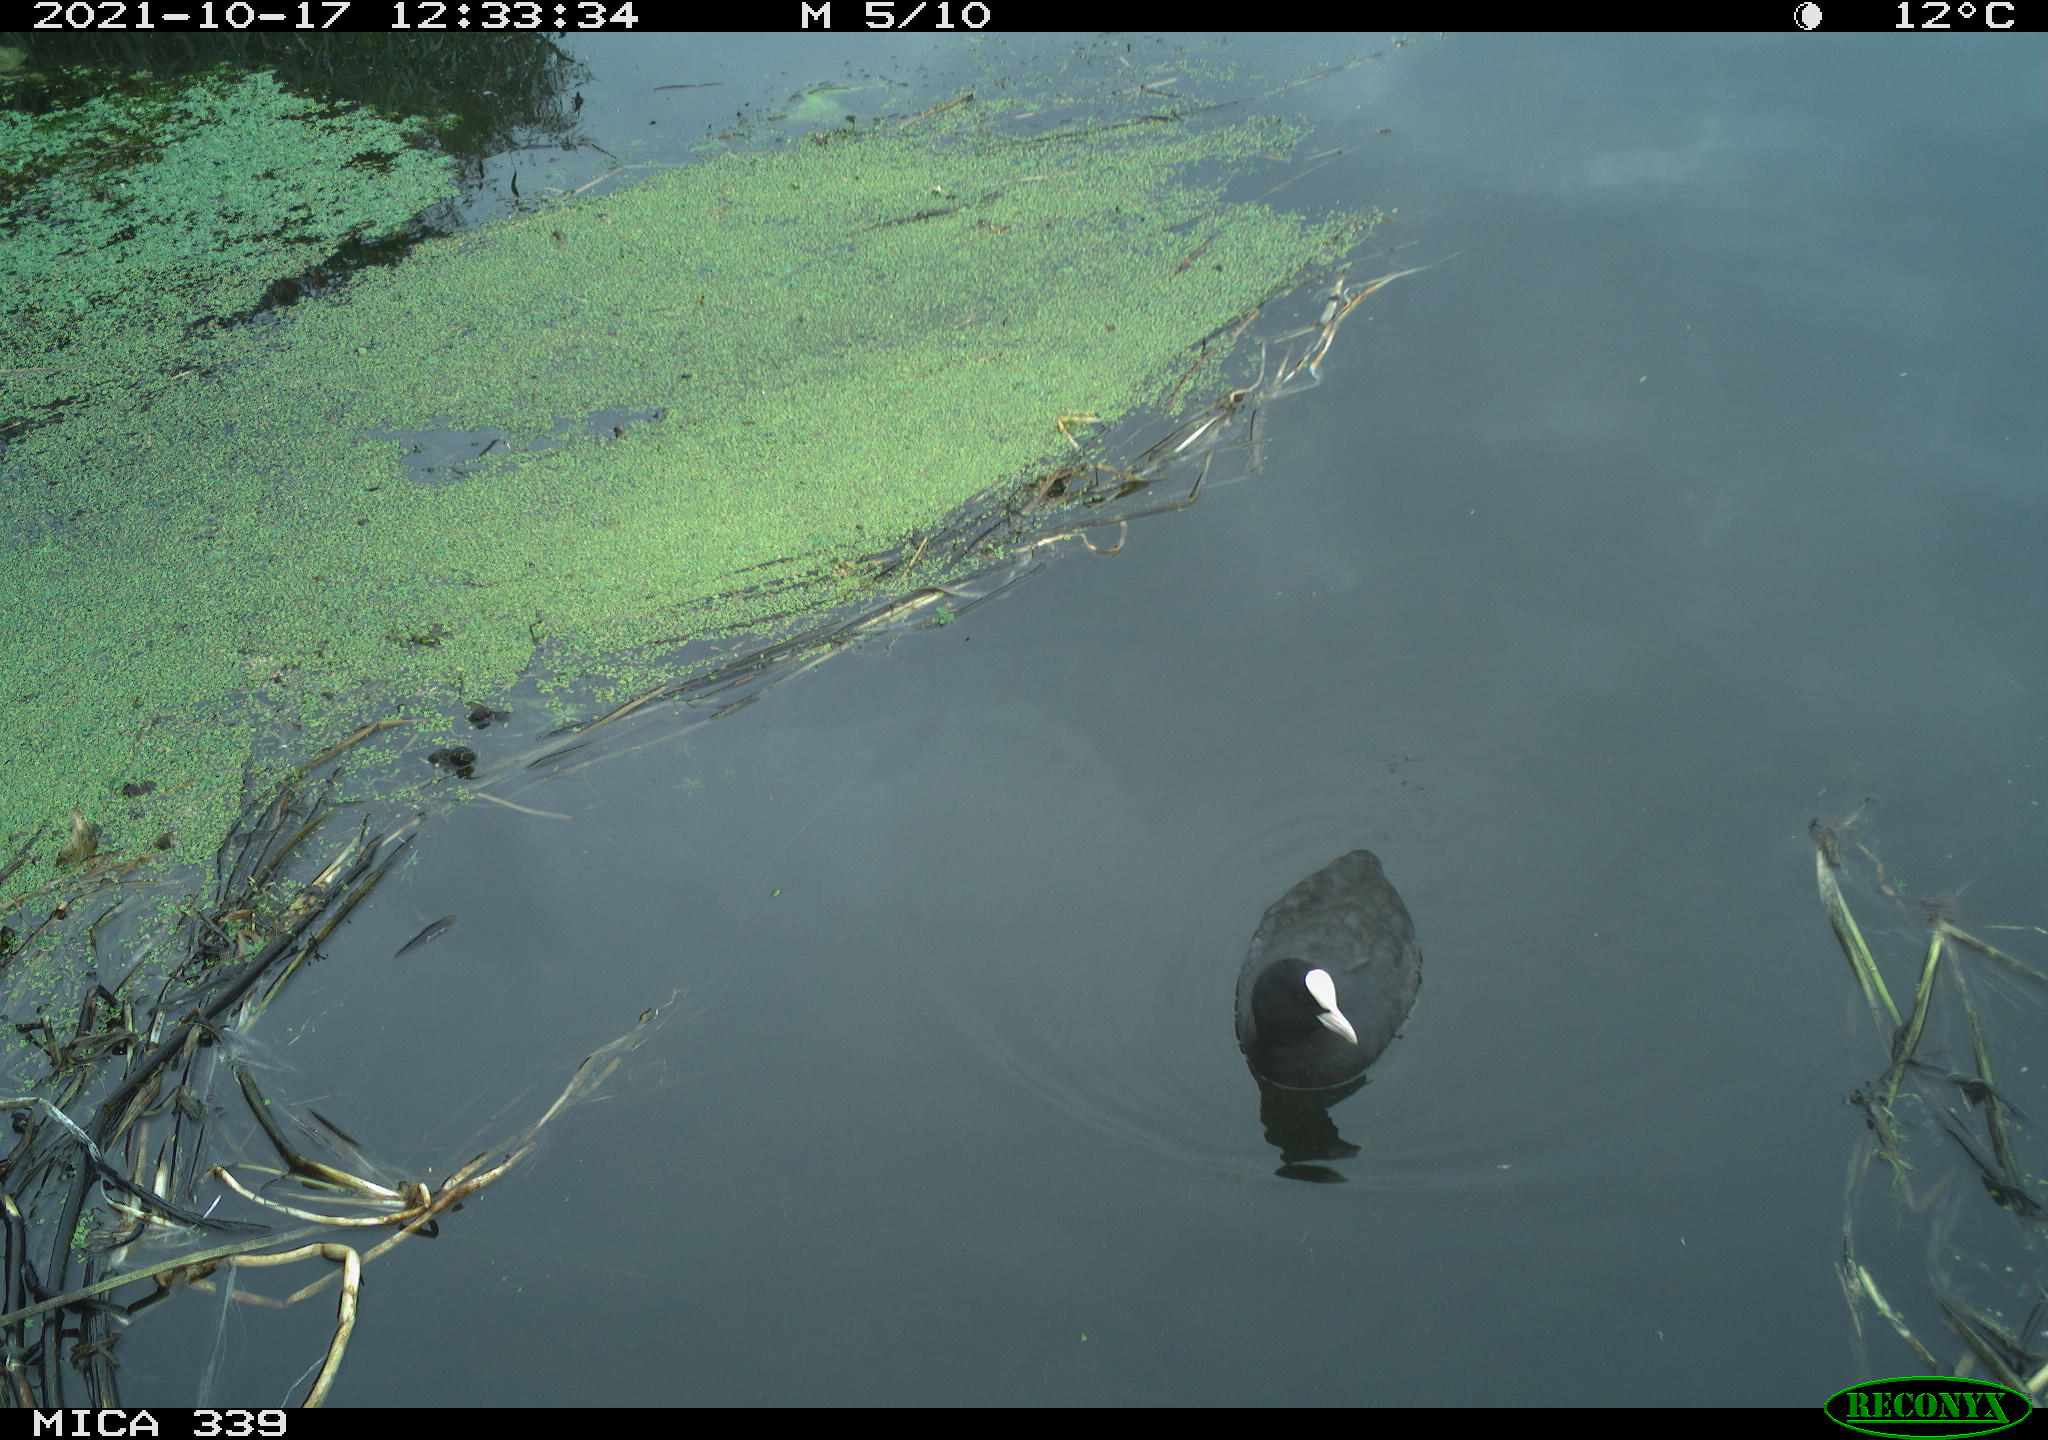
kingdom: Animalia
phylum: Chordata
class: Aves
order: Gruiformes
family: Rallidae
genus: Fulica
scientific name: Fulica atra
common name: Eurasian coot
